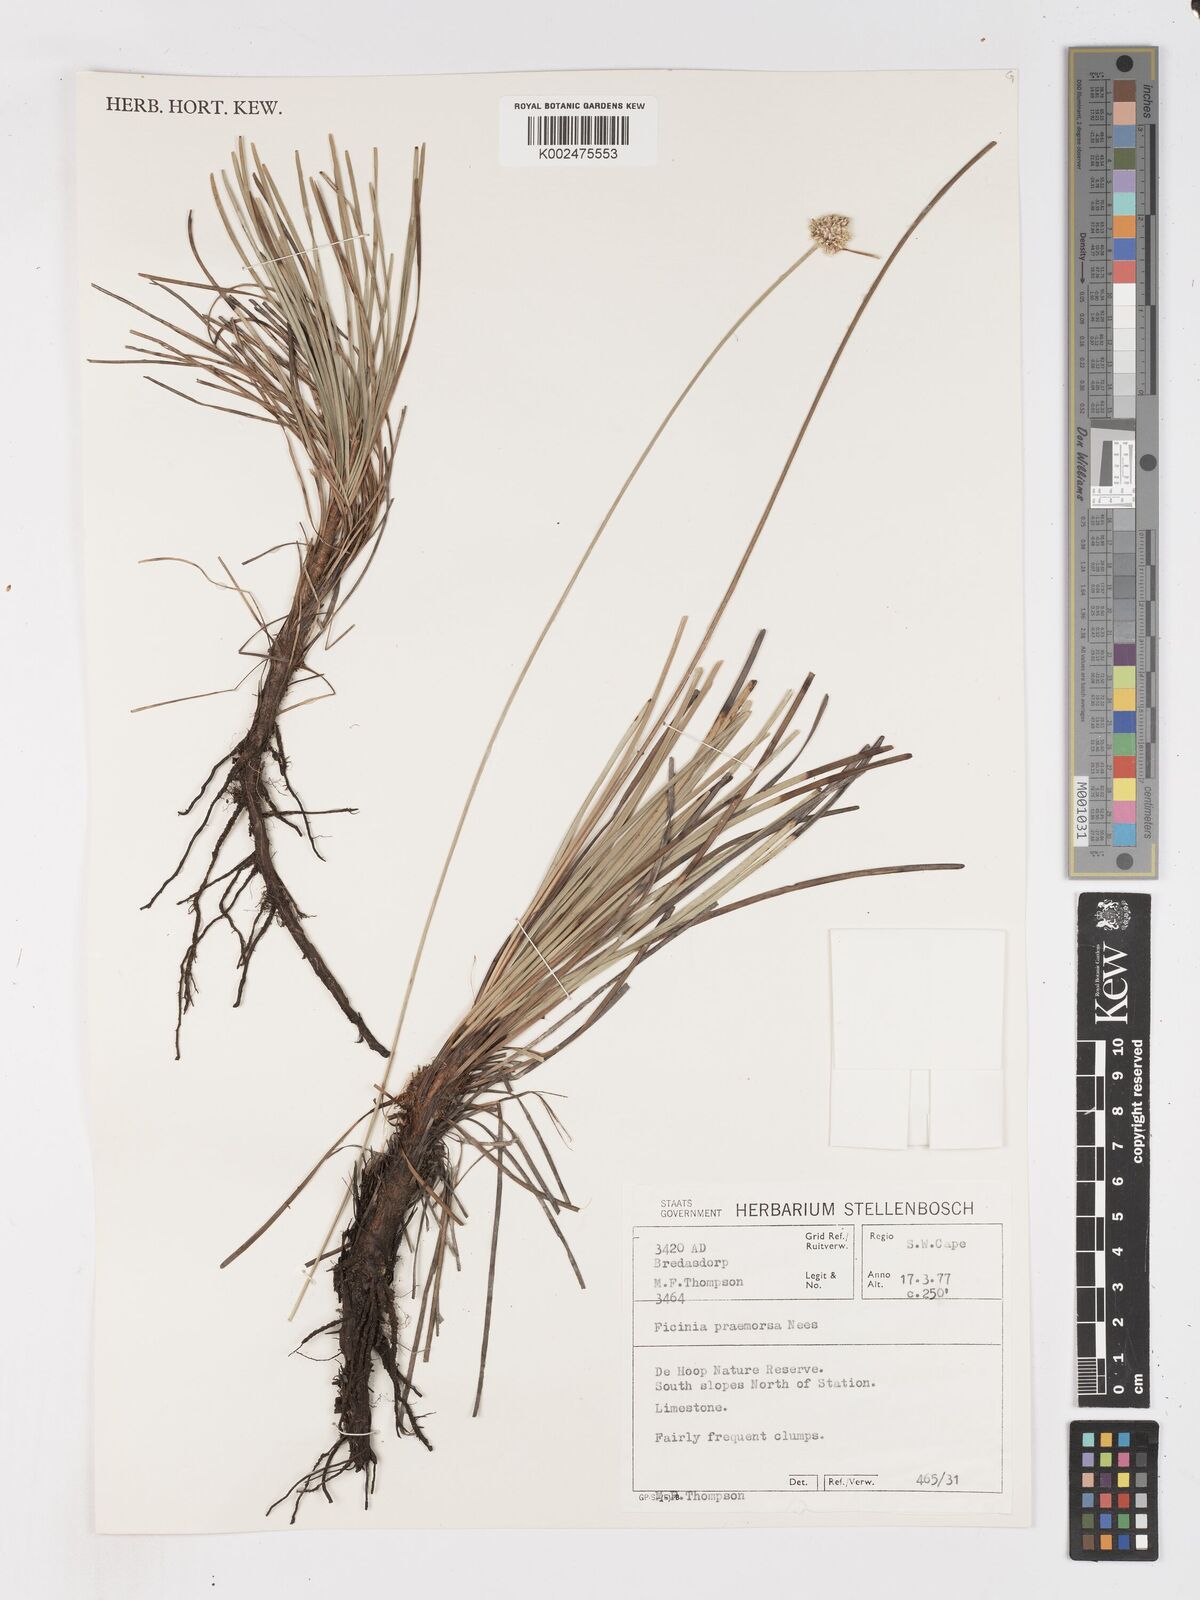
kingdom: Plantae
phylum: Tracheophyta
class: Liliopsida
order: Poales
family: Cyperaceae
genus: Ficinia
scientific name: Ficinia praemorsa
